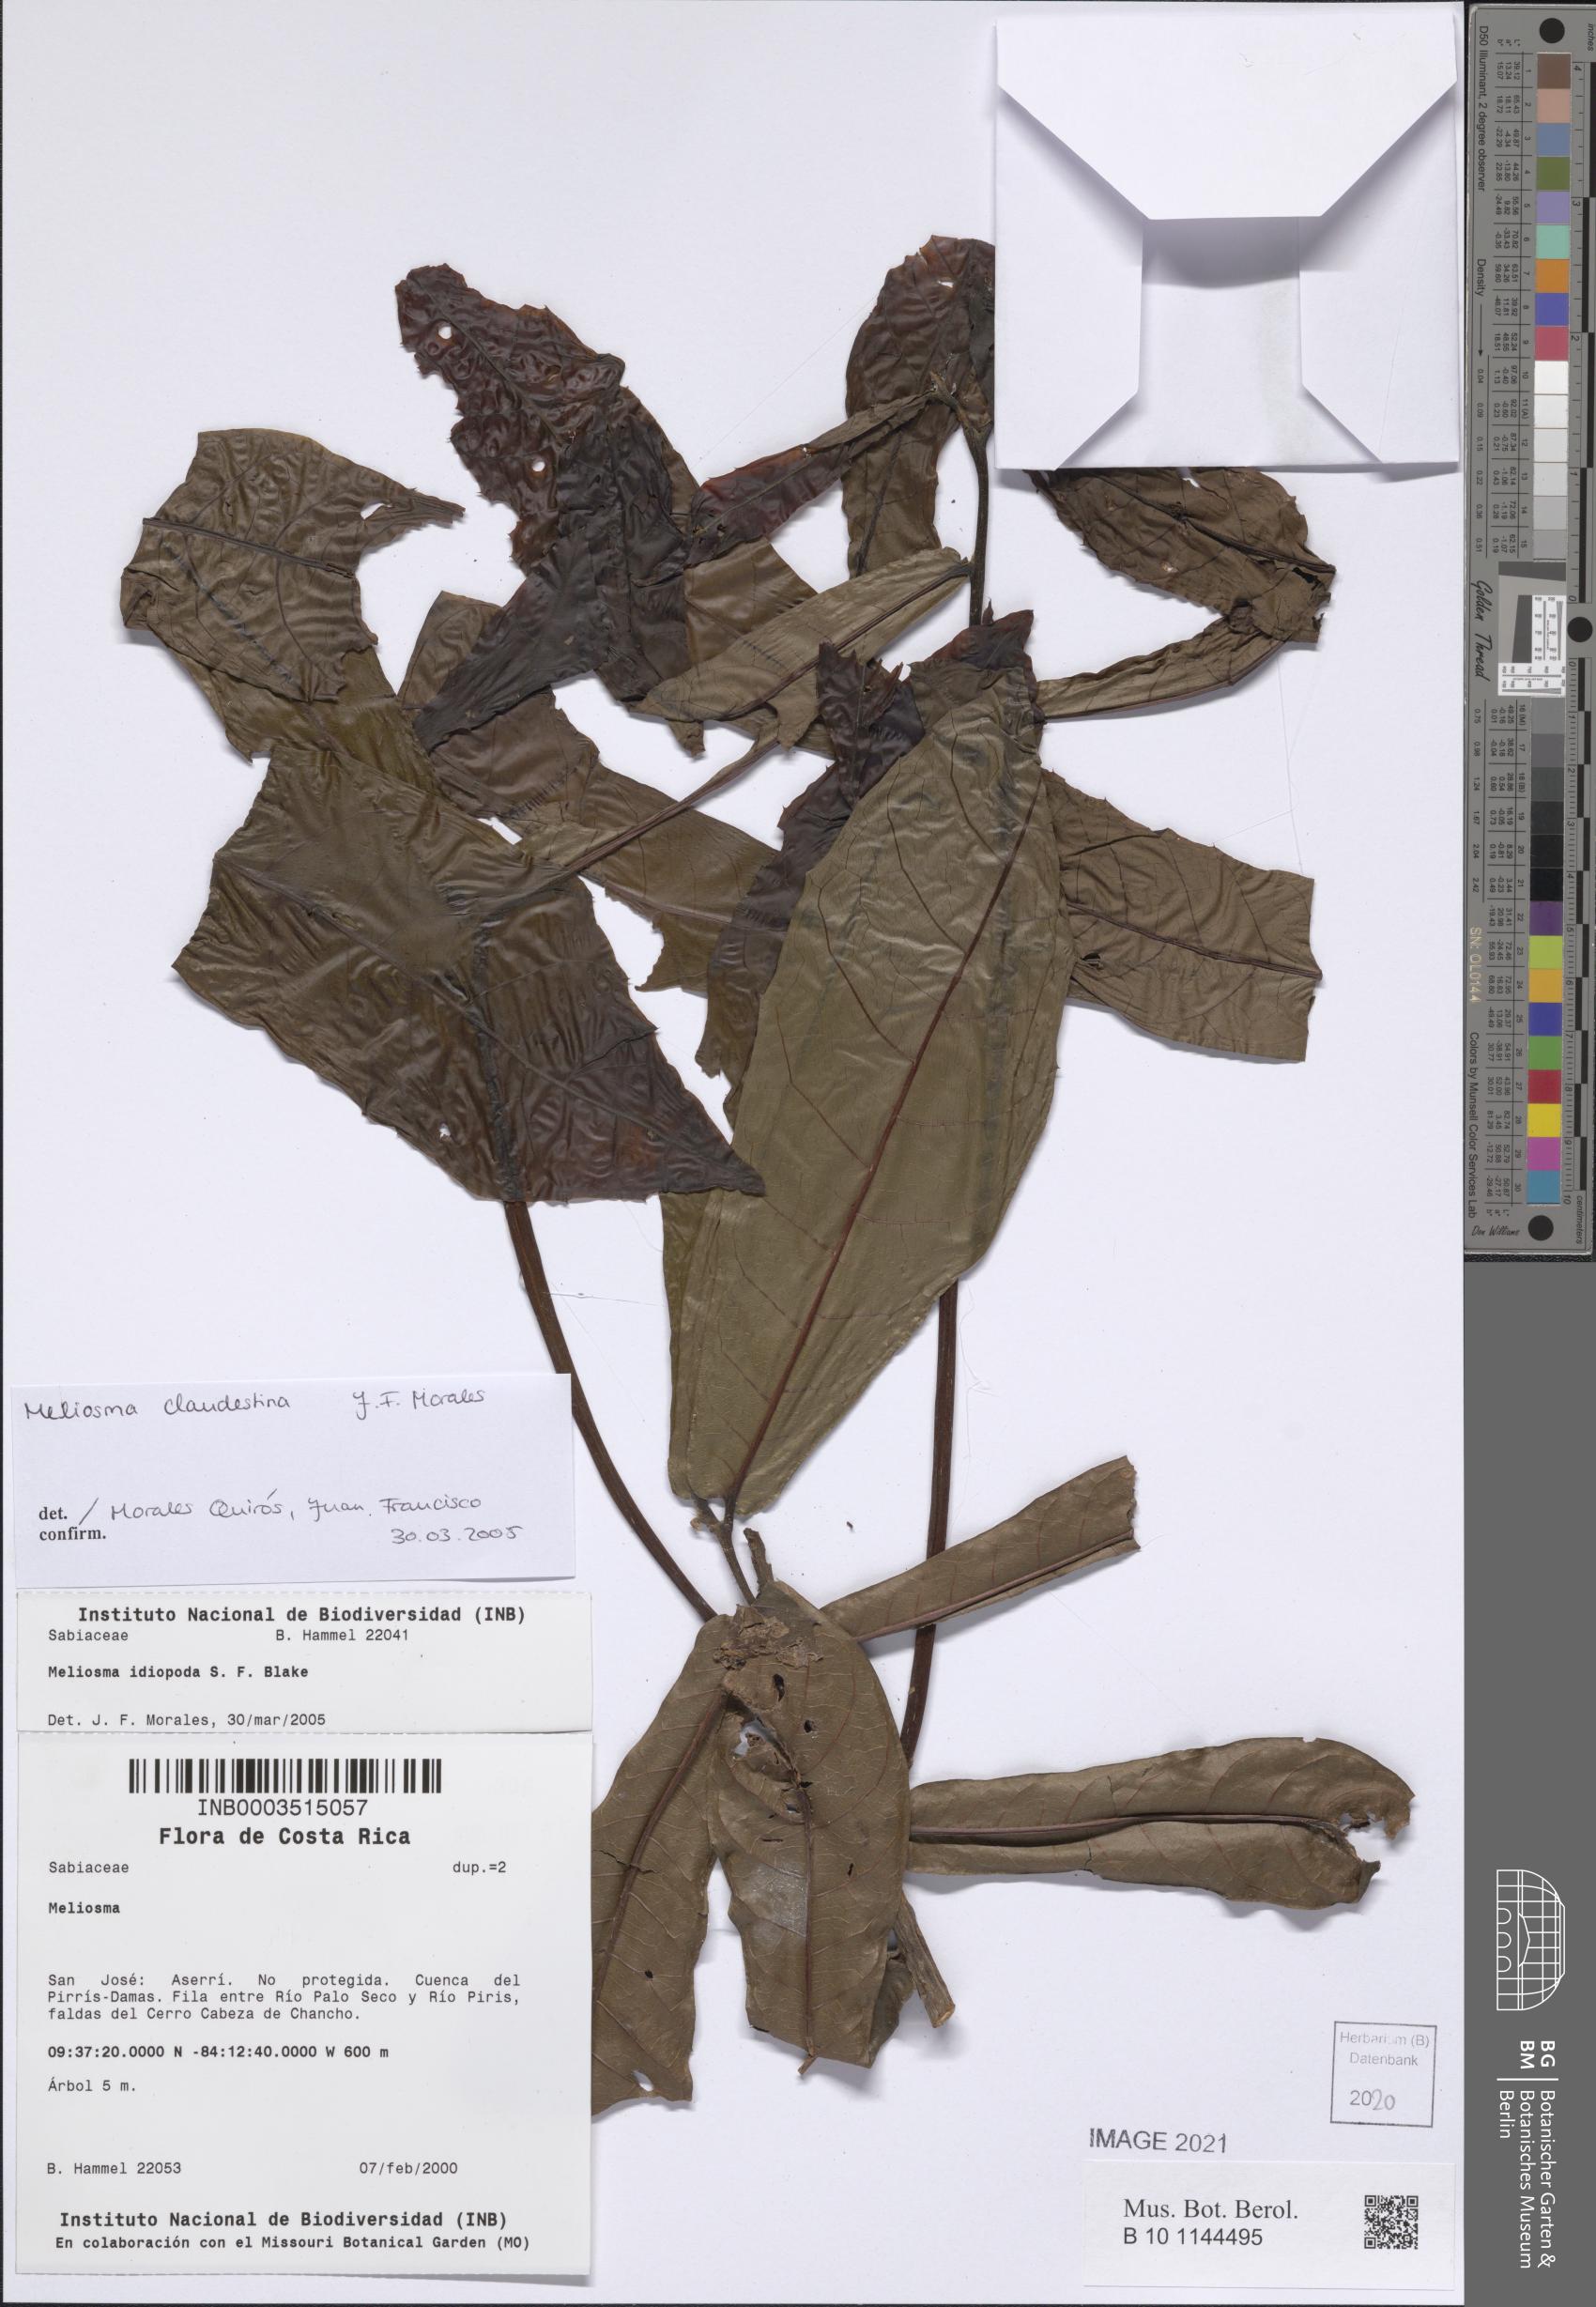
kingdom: Plantae
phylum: Tracheophyta
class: Magnoliopsida
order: Proteales
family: Sabiaceae
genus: Meliosma
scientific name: Meliosma clandestina
